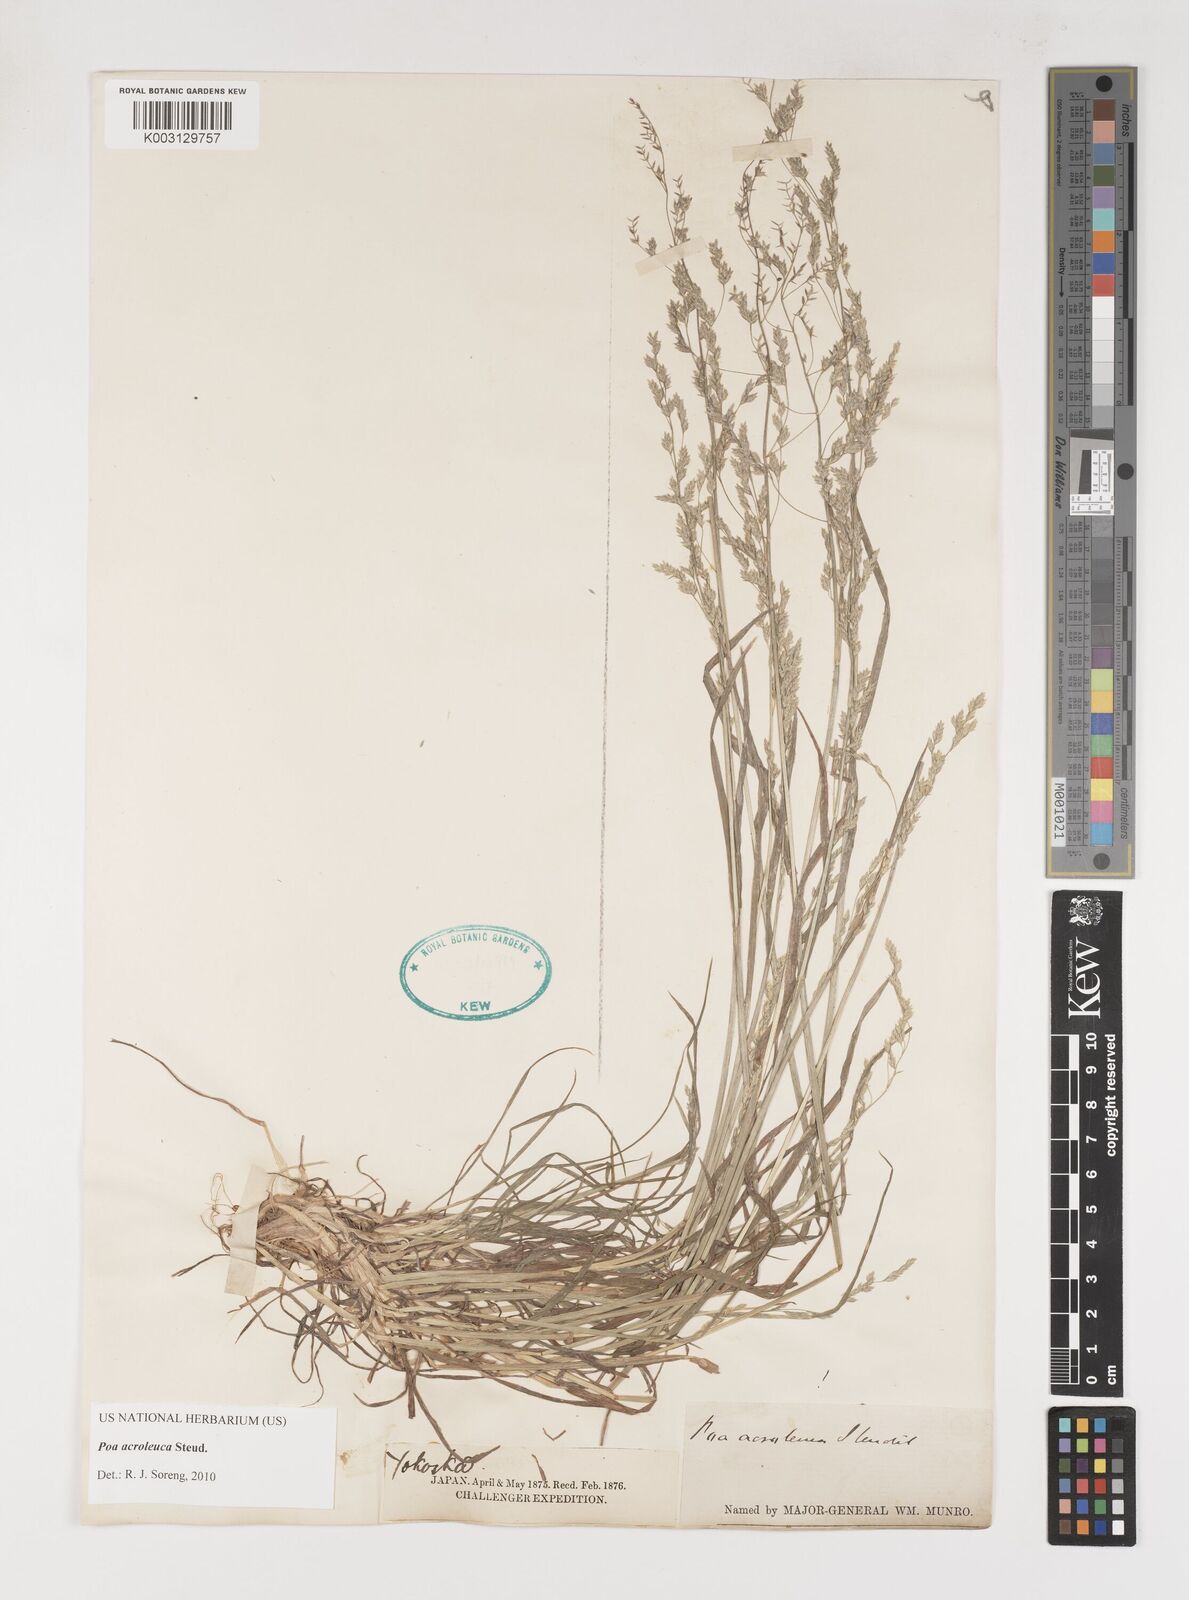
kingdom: Plantae
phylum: Tracheophyta
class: Liliopsida
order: Poales
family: Poaceae
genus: Poa
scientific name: Poa acroleuca
